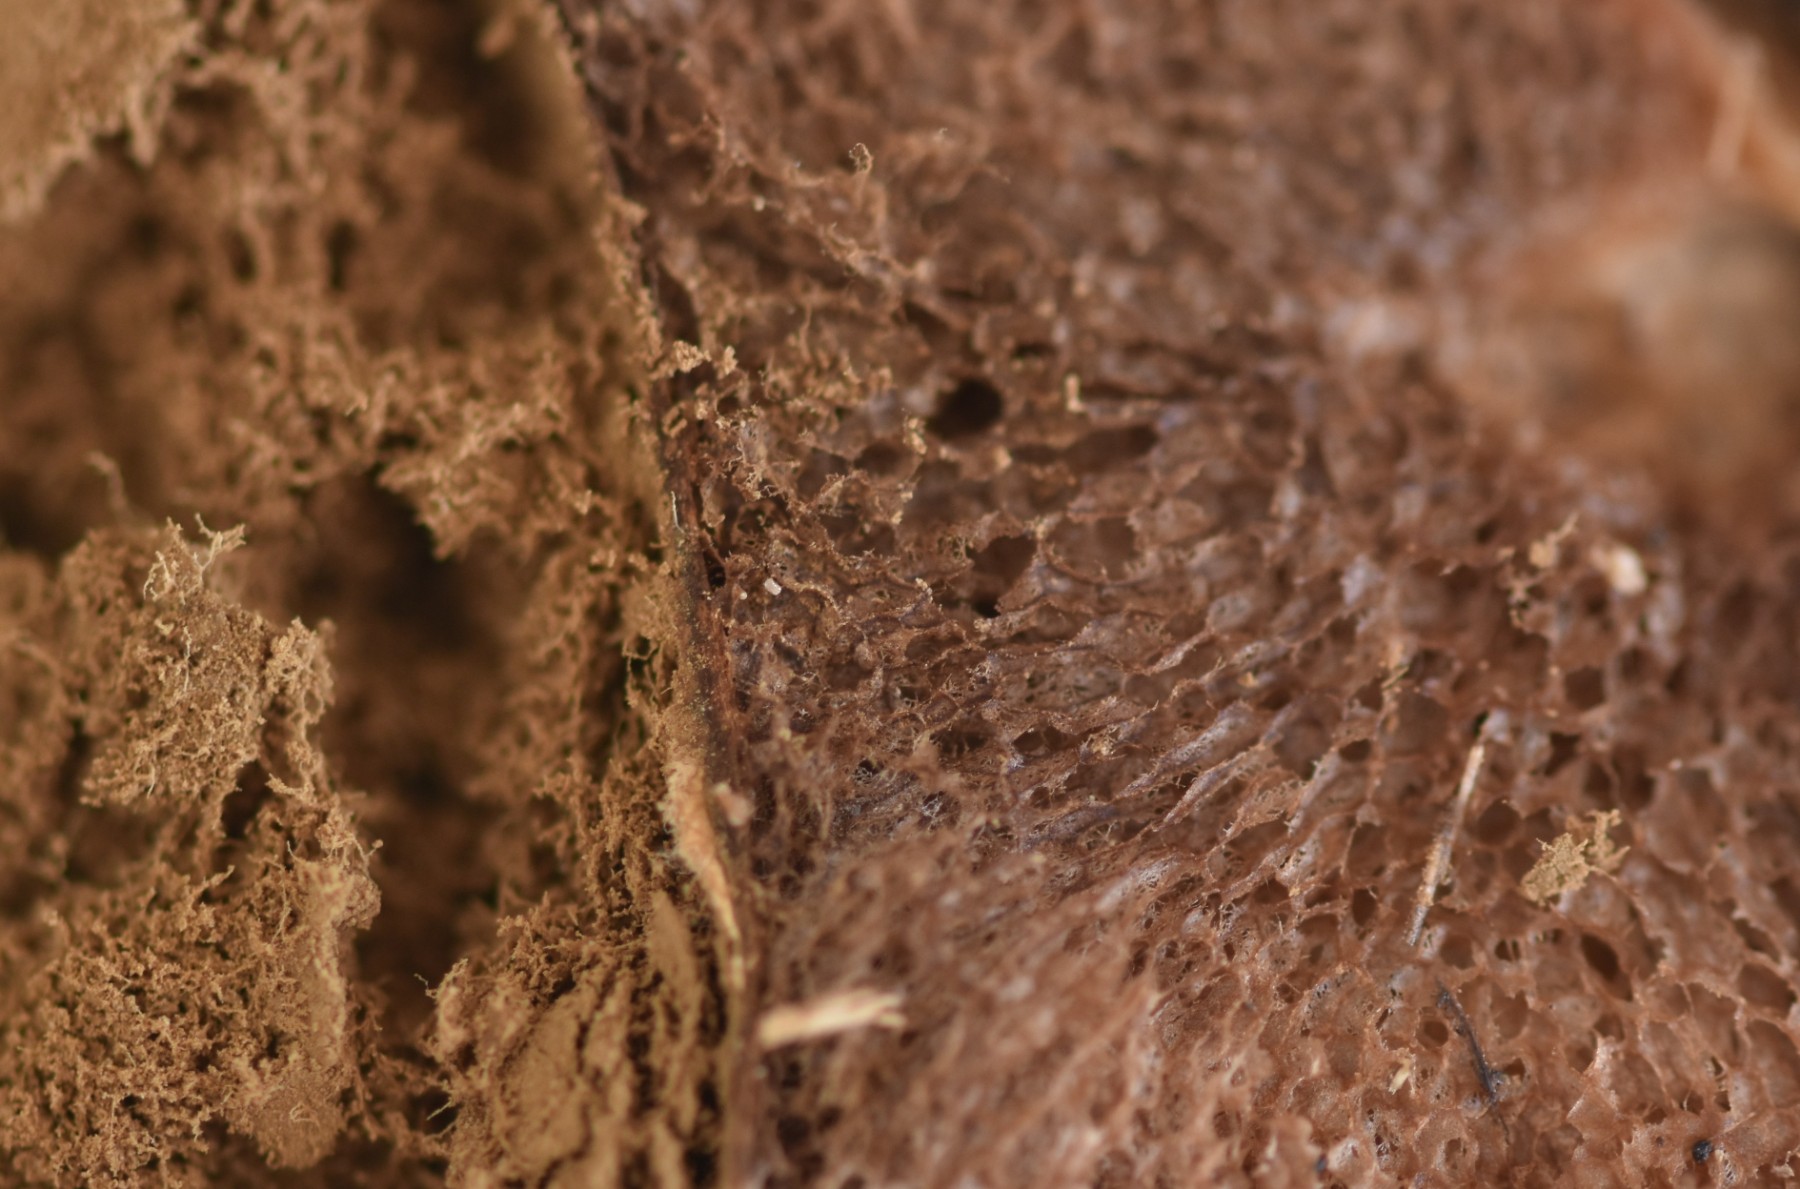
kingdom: Fungi
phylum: Basidiomycota
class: Agaricomycetes
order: Agaricales
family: Lycoperdaceae
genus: Lycoperdon
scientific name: Lycoperdon nigrescens
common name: sortagtig støvbold
